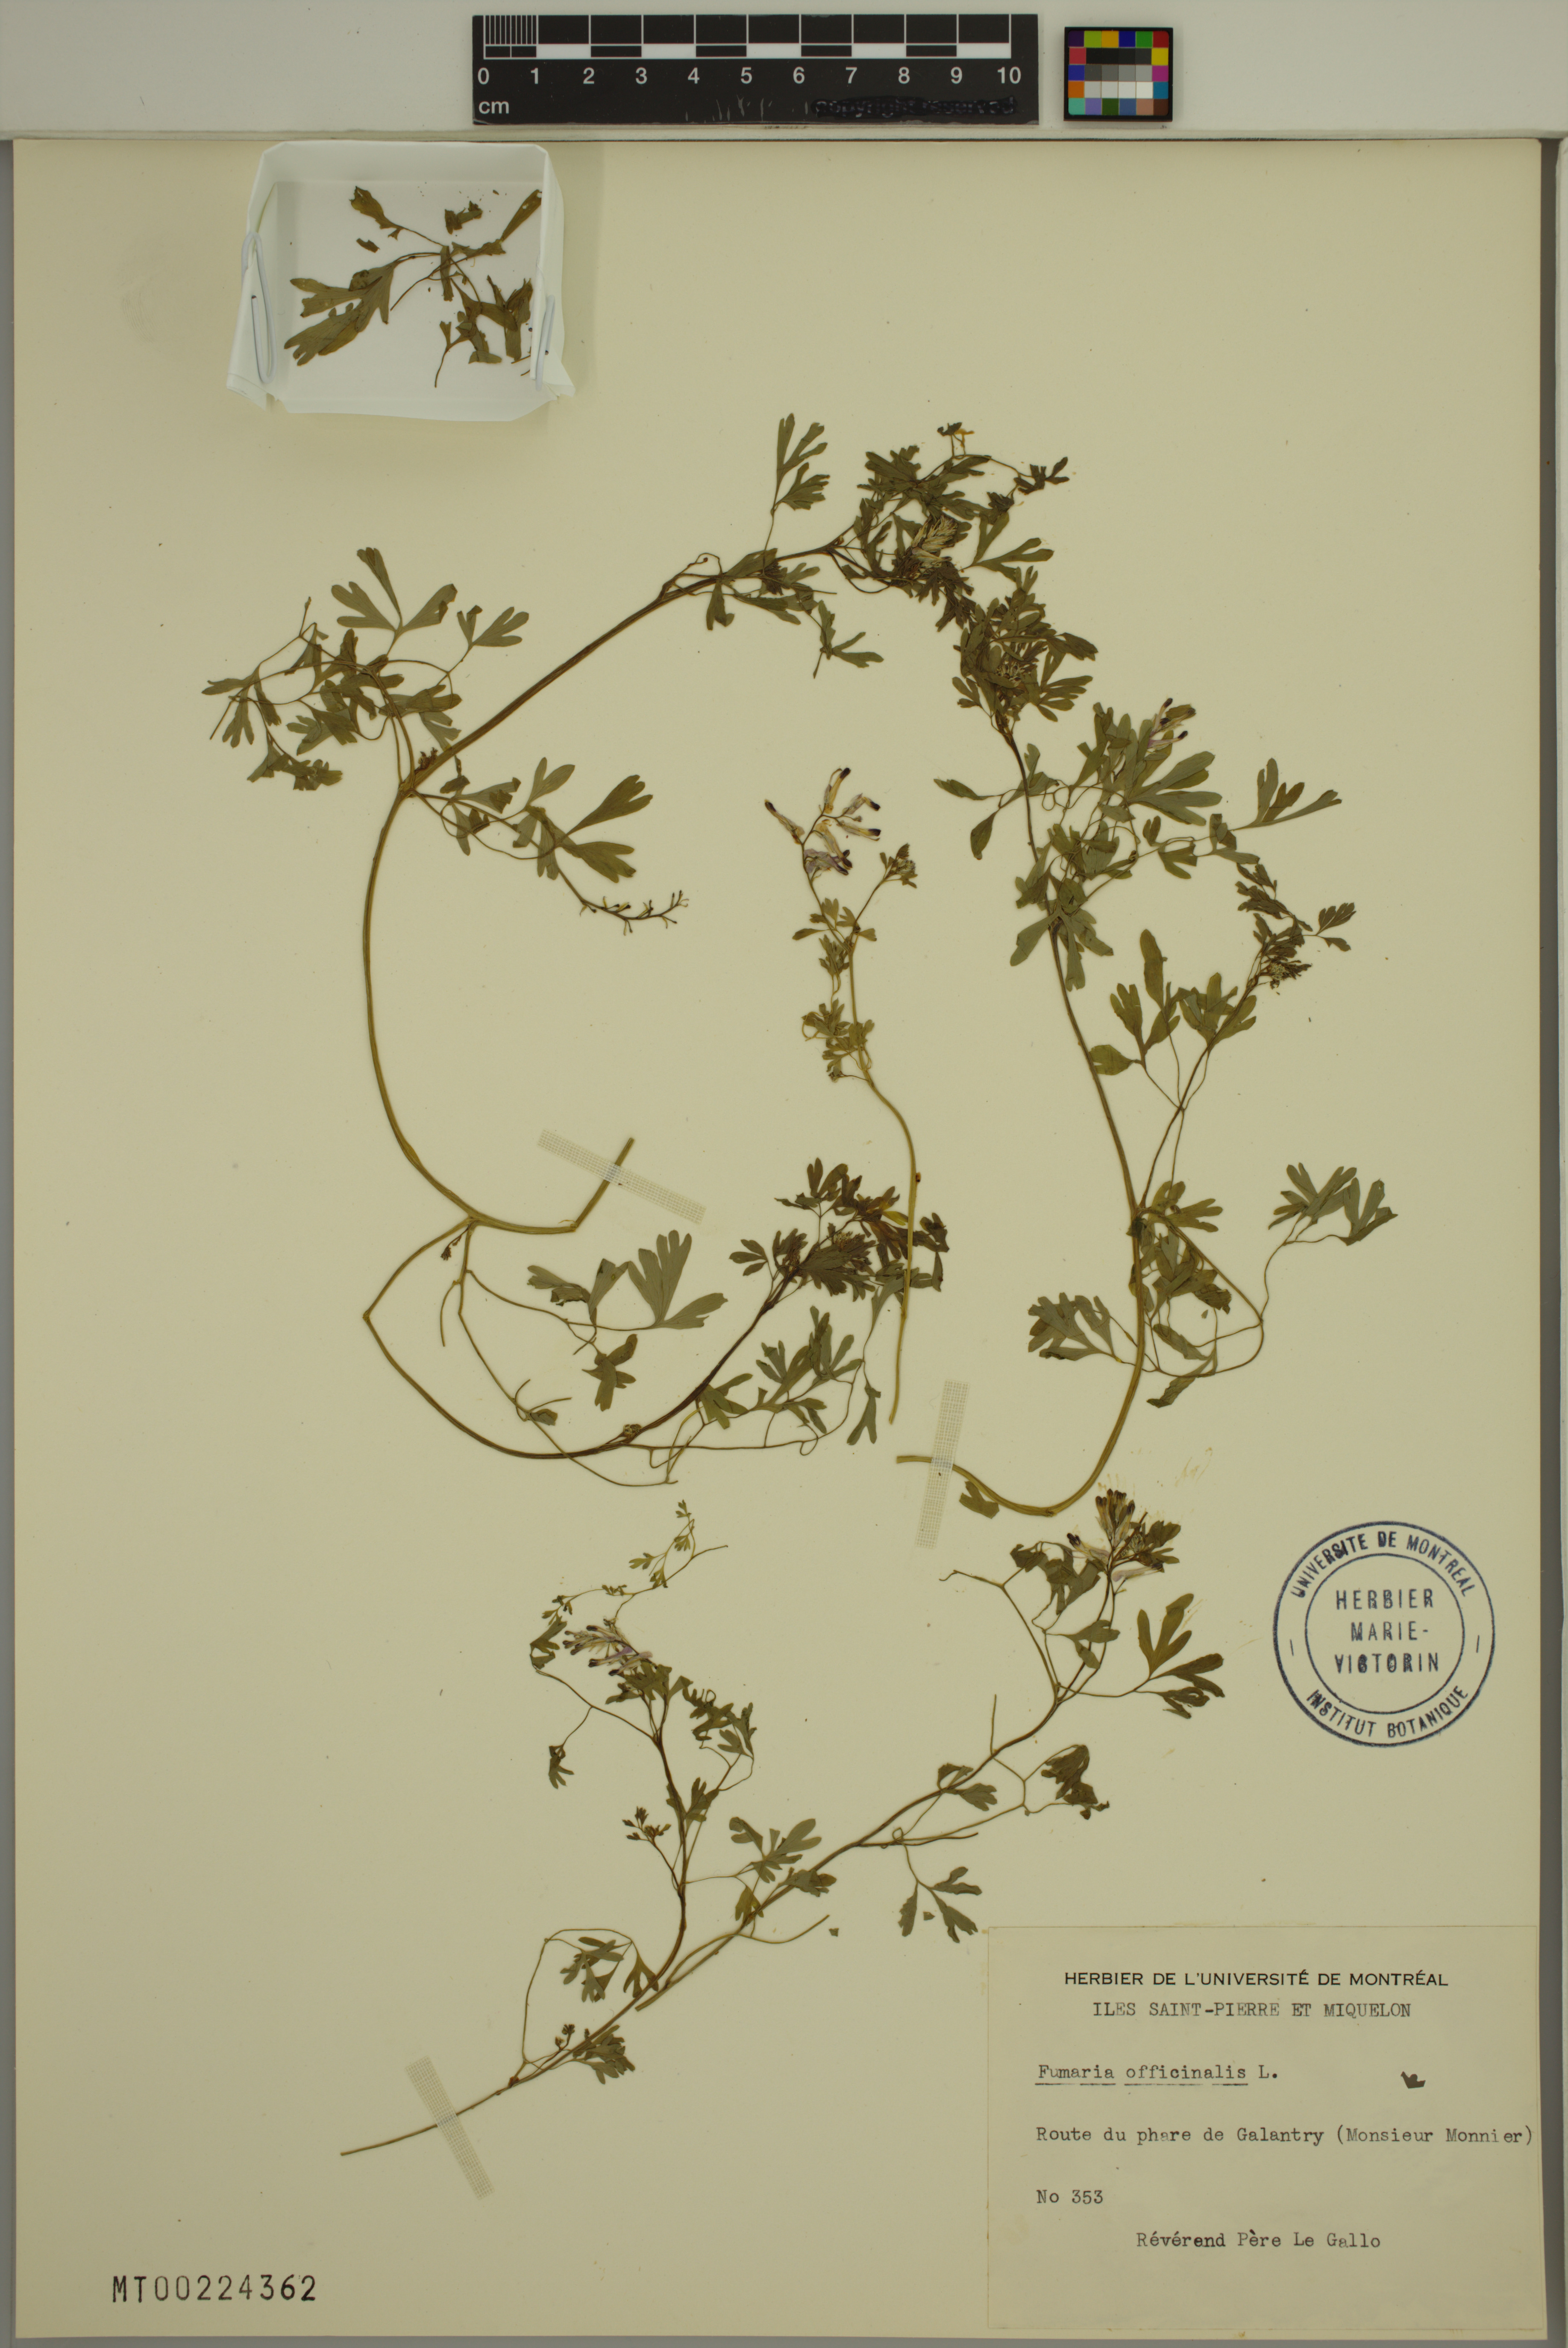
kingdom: Plantae
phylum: Tracheophyta
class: Magnoliopsida
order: Ranunculales
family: Papaveraceae
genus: Fumaria
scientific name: Fumaria officinalis
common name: Common fumitory
